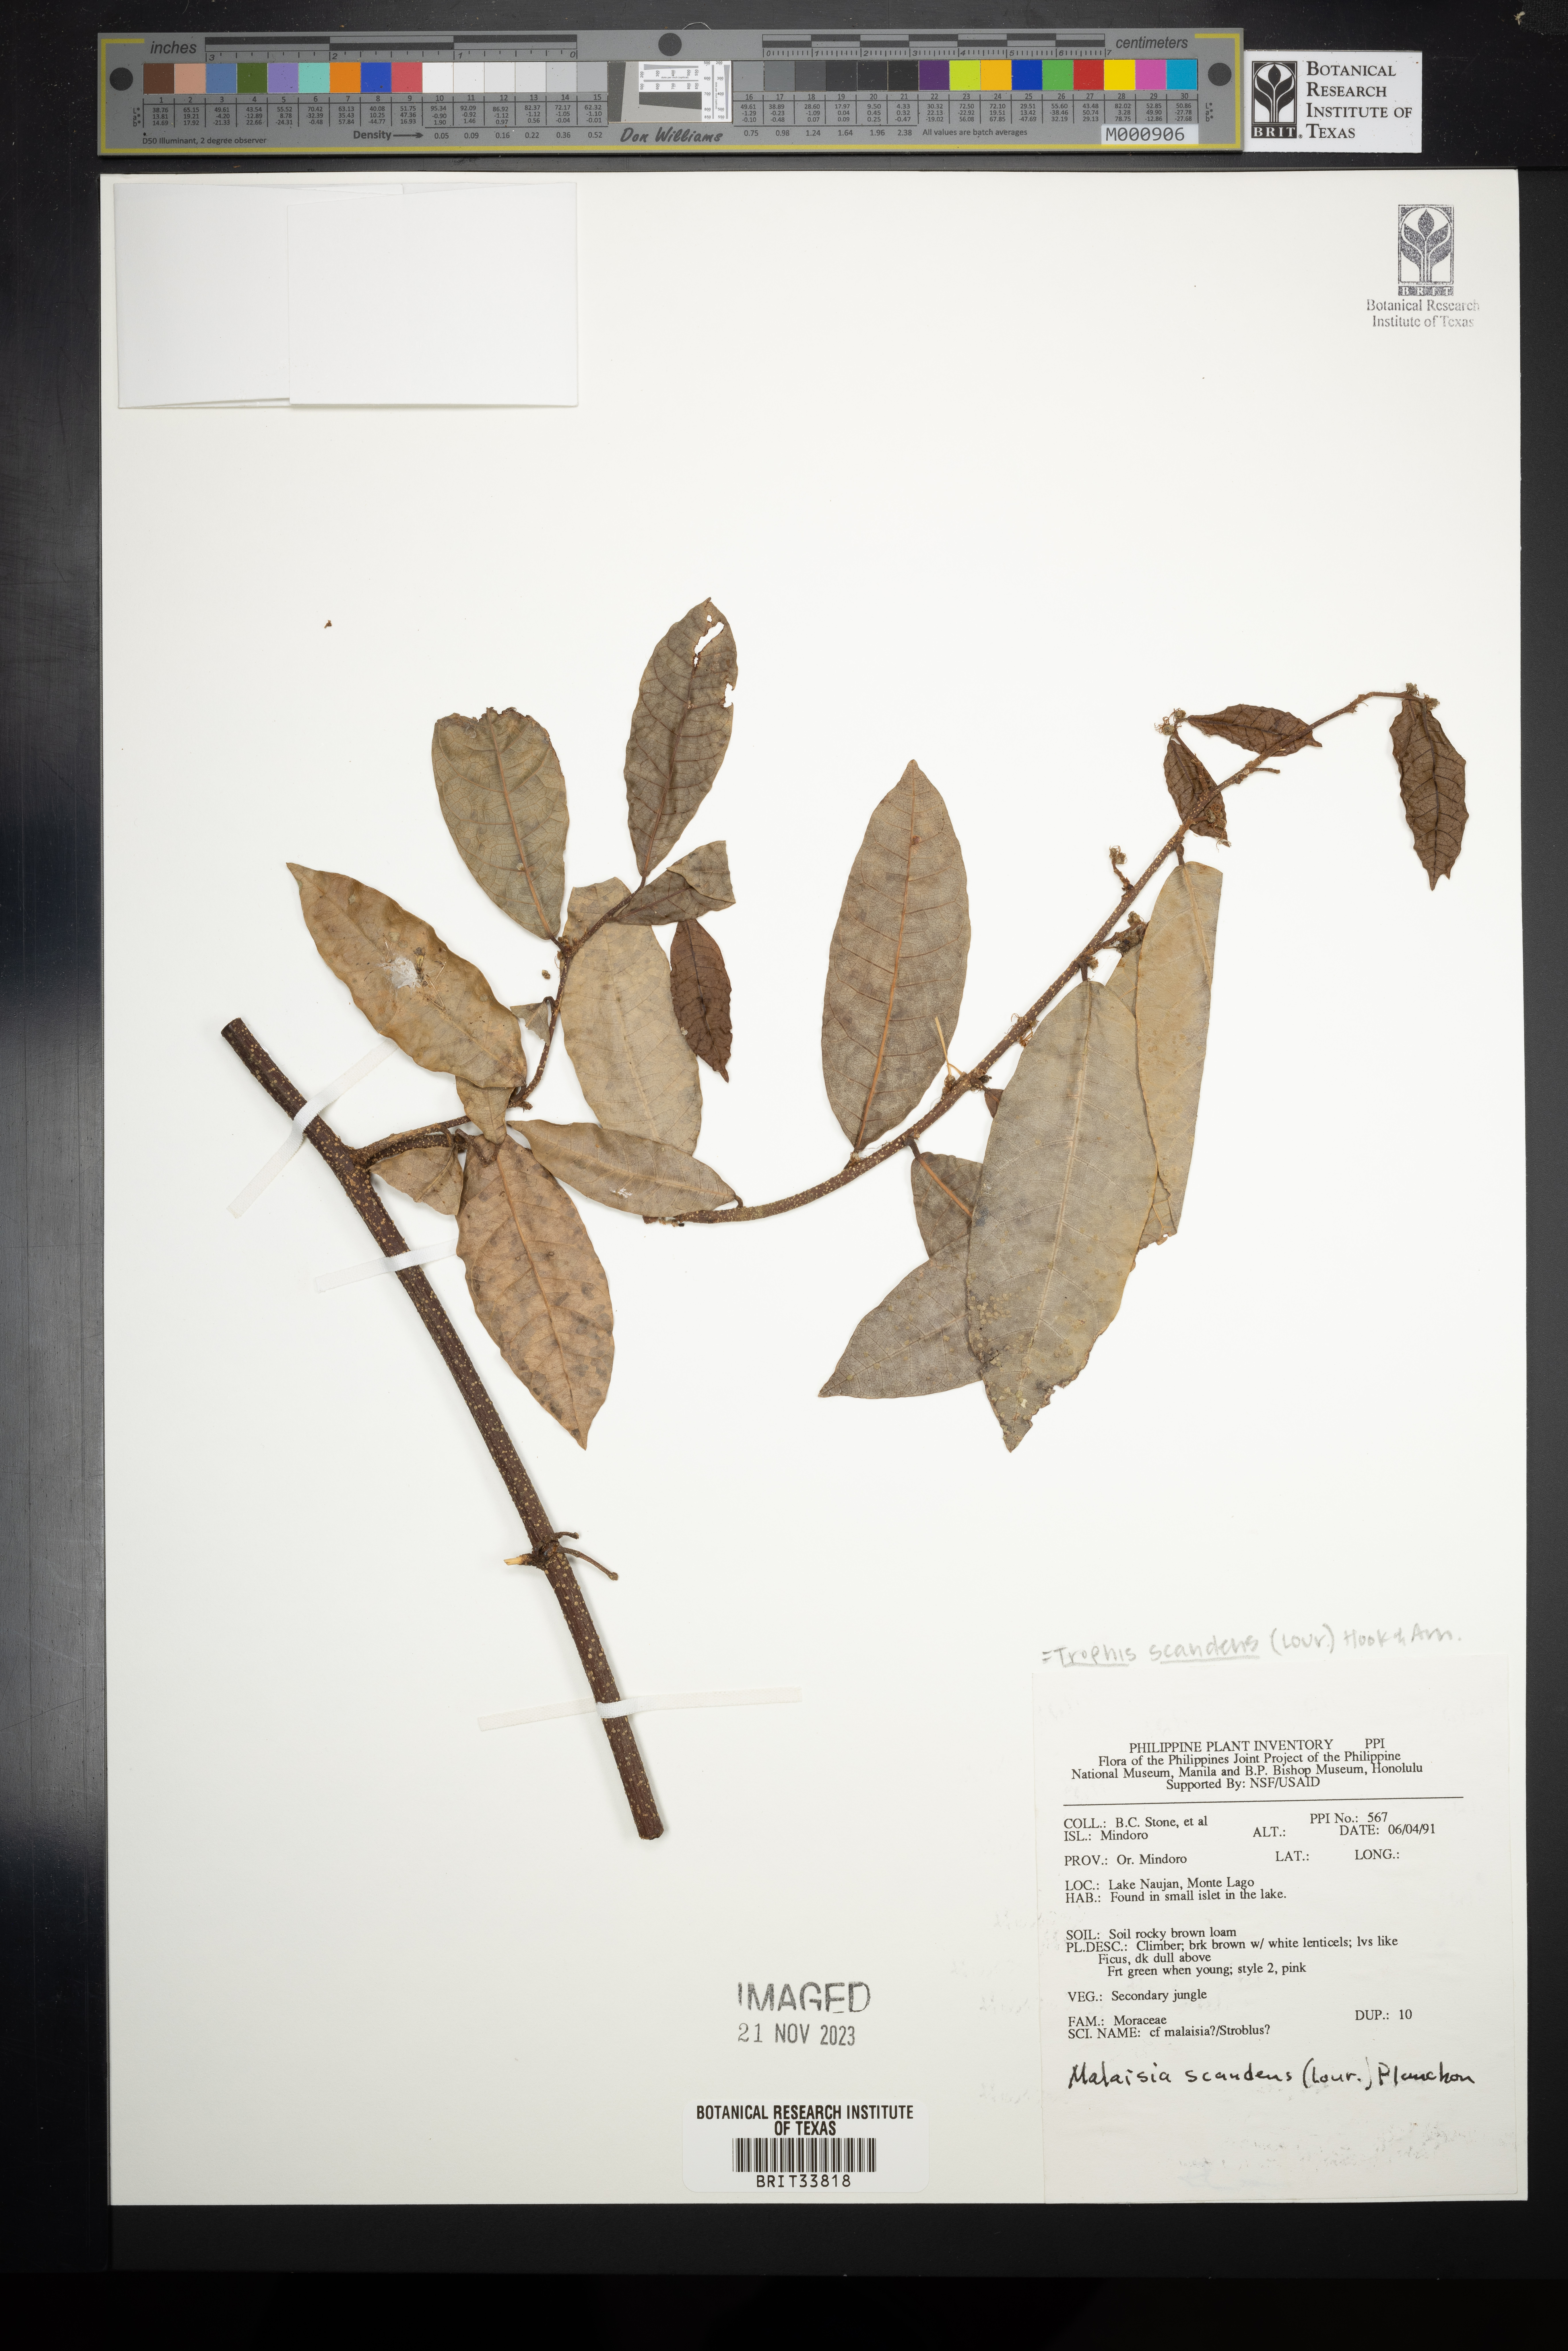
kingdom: Plantae
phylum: Tracheophyta
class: Magnoliopsida
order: Rosales
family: Moraceae
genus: Malaisia
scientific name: Malaisia scandens
